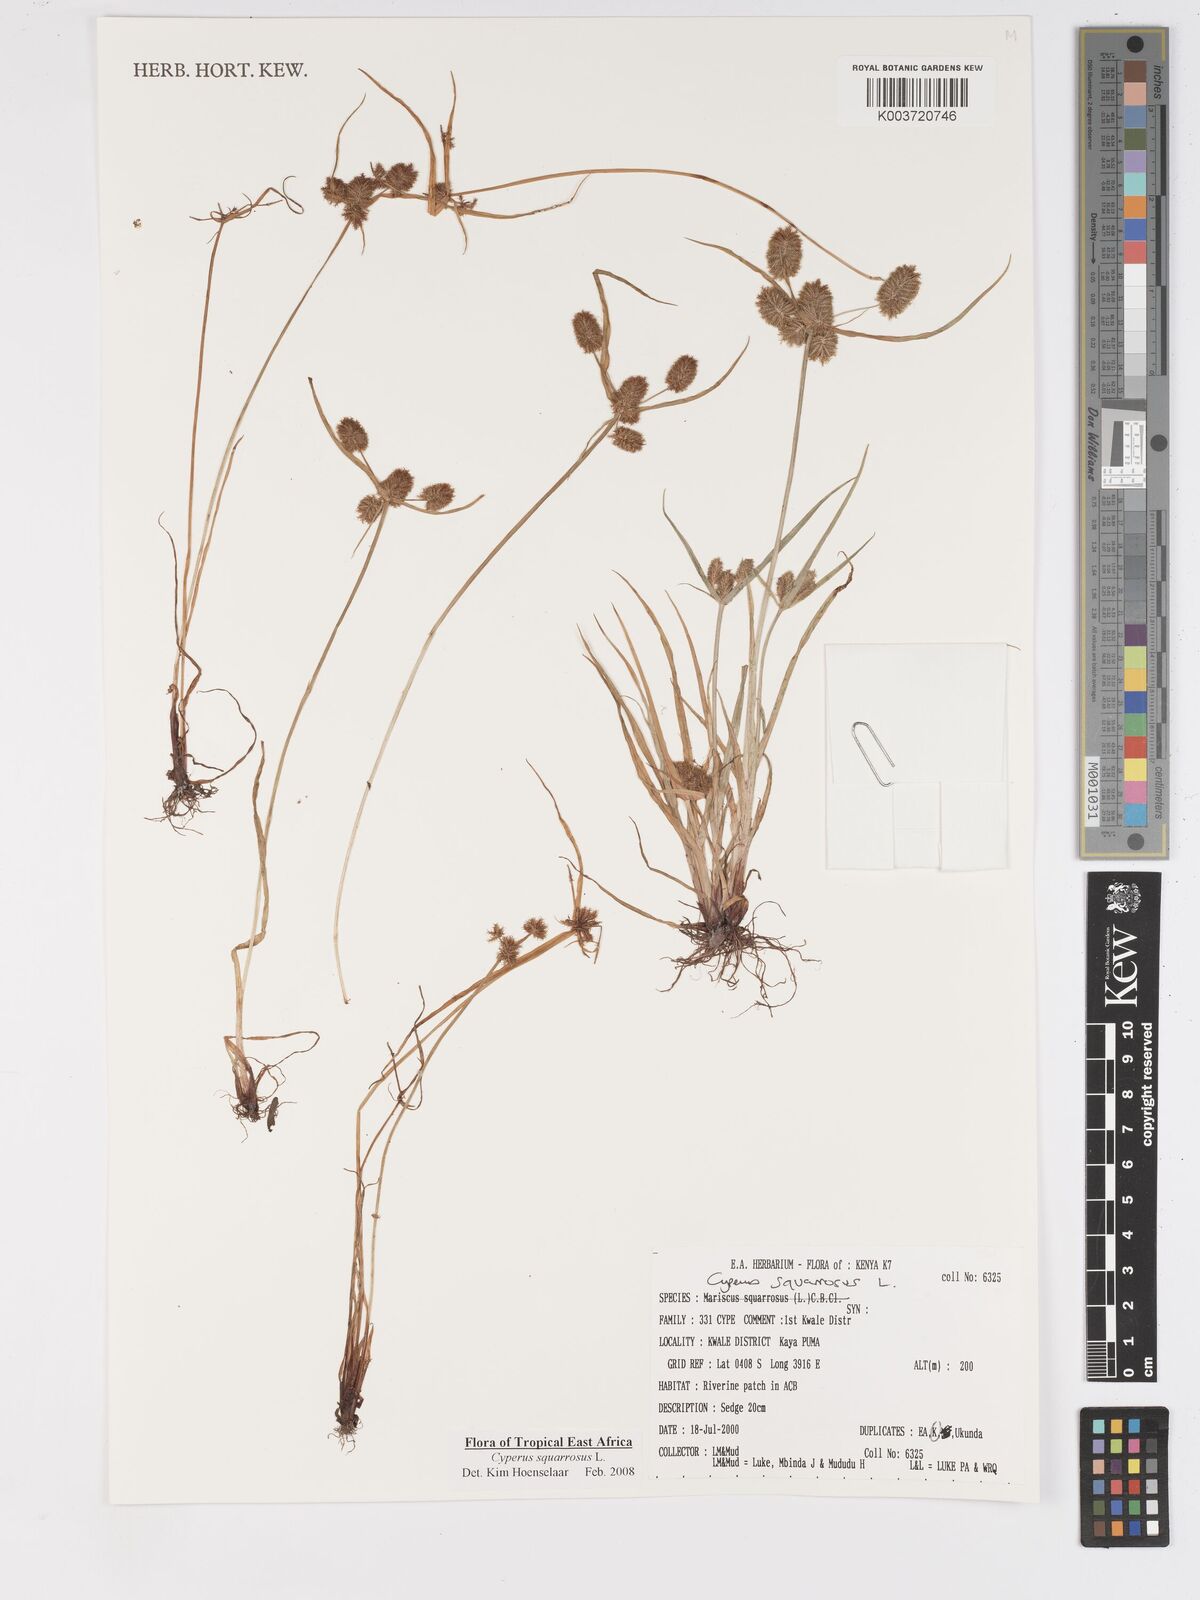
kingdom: Plantae
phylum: Tracheophyta
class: Liliopsida
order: Poales
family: Cyperaceae
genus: Cyperus
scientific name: Cyperus squarrosus
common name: Awned cyperus
